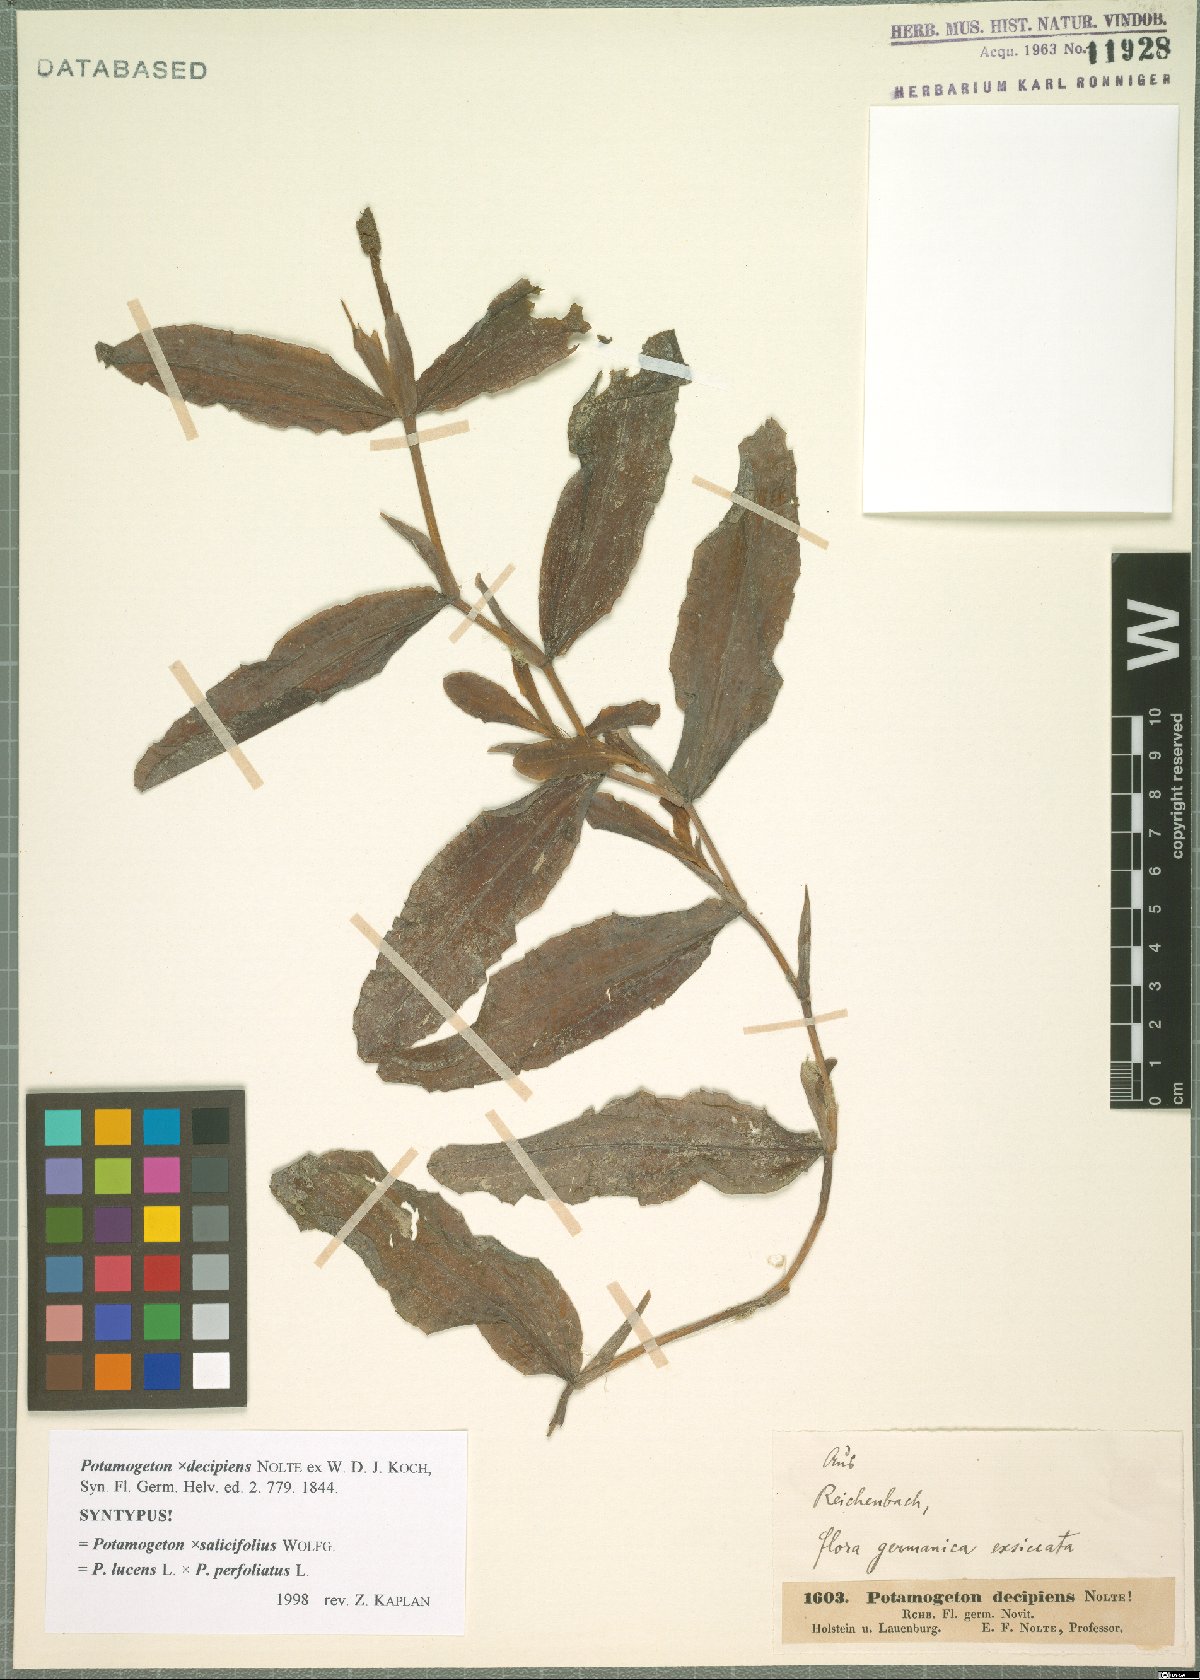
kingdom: Plantae
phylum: Tracheophyta
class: Liliopsida
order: Alismatales
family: Potamogetonaceae
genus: Potamogeton
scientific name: Potamogeton salicifolius
